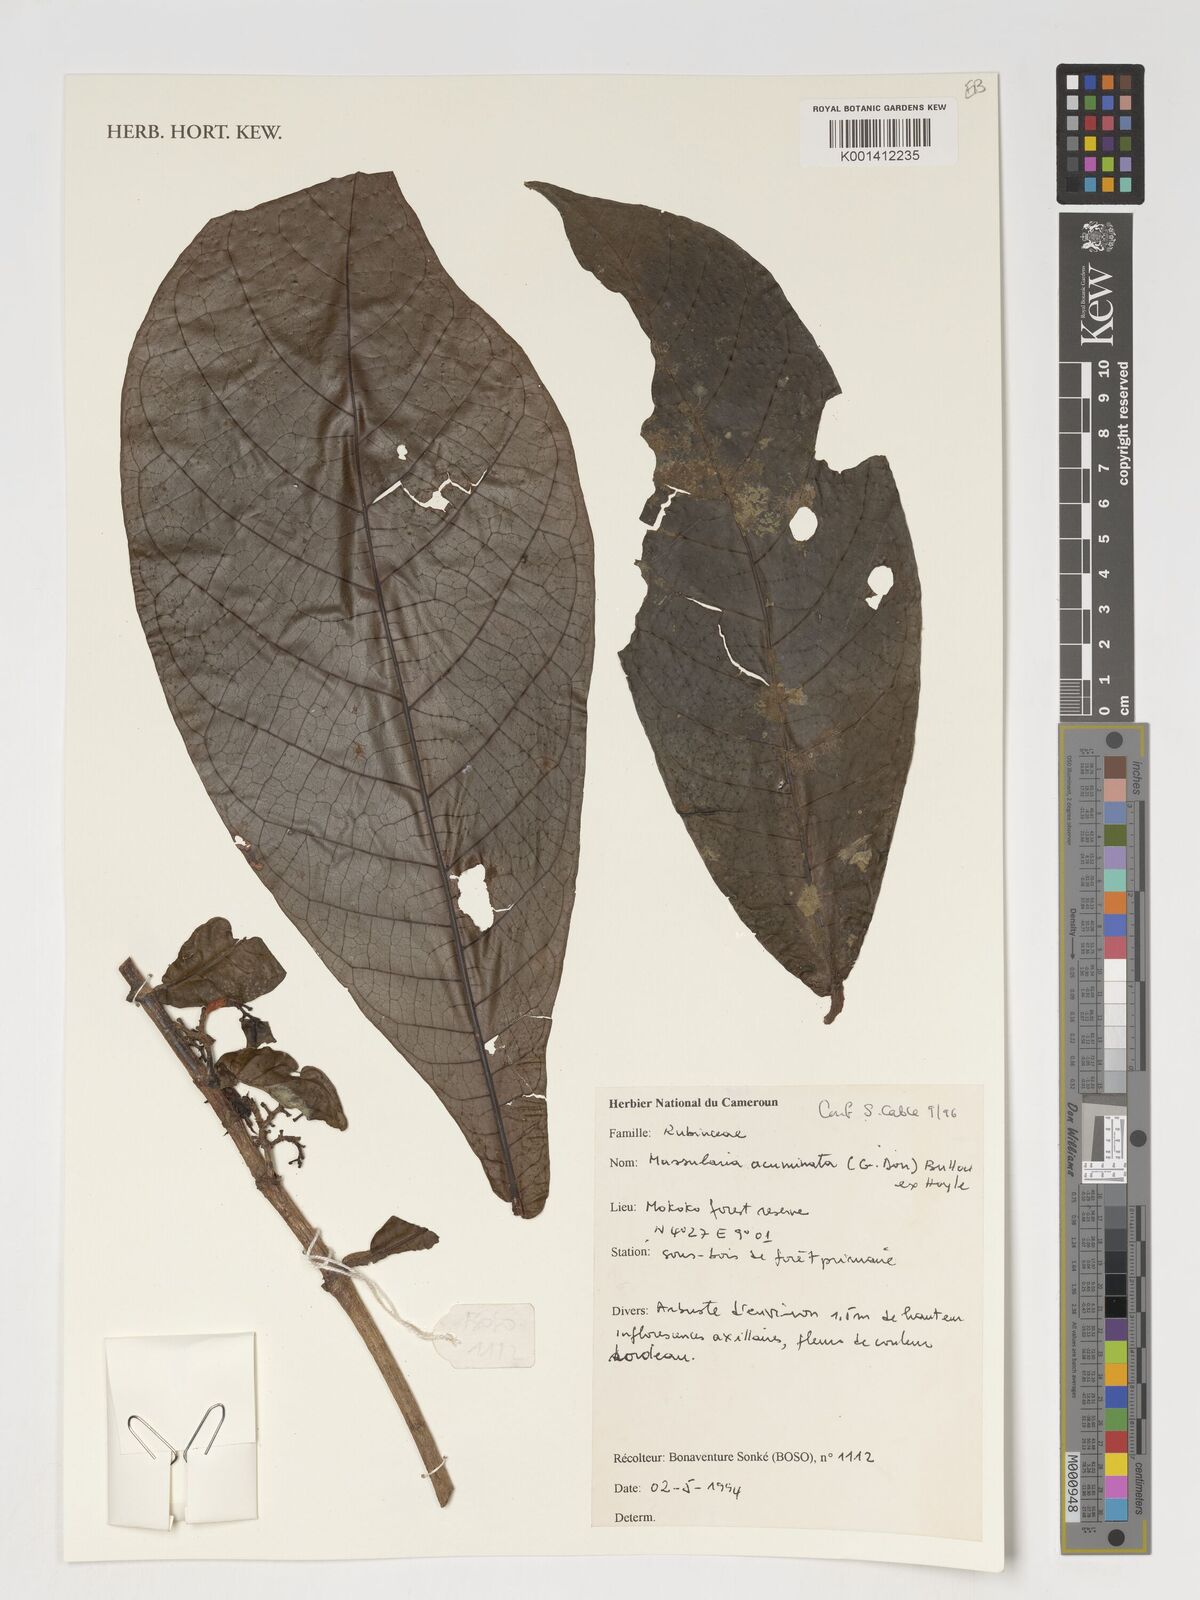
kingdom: Plantae
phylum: Tracheophyta
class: Magnoliopsida
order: Gentianales
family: Rubiaceae
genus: Massularia
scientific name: Massularia acuminata
